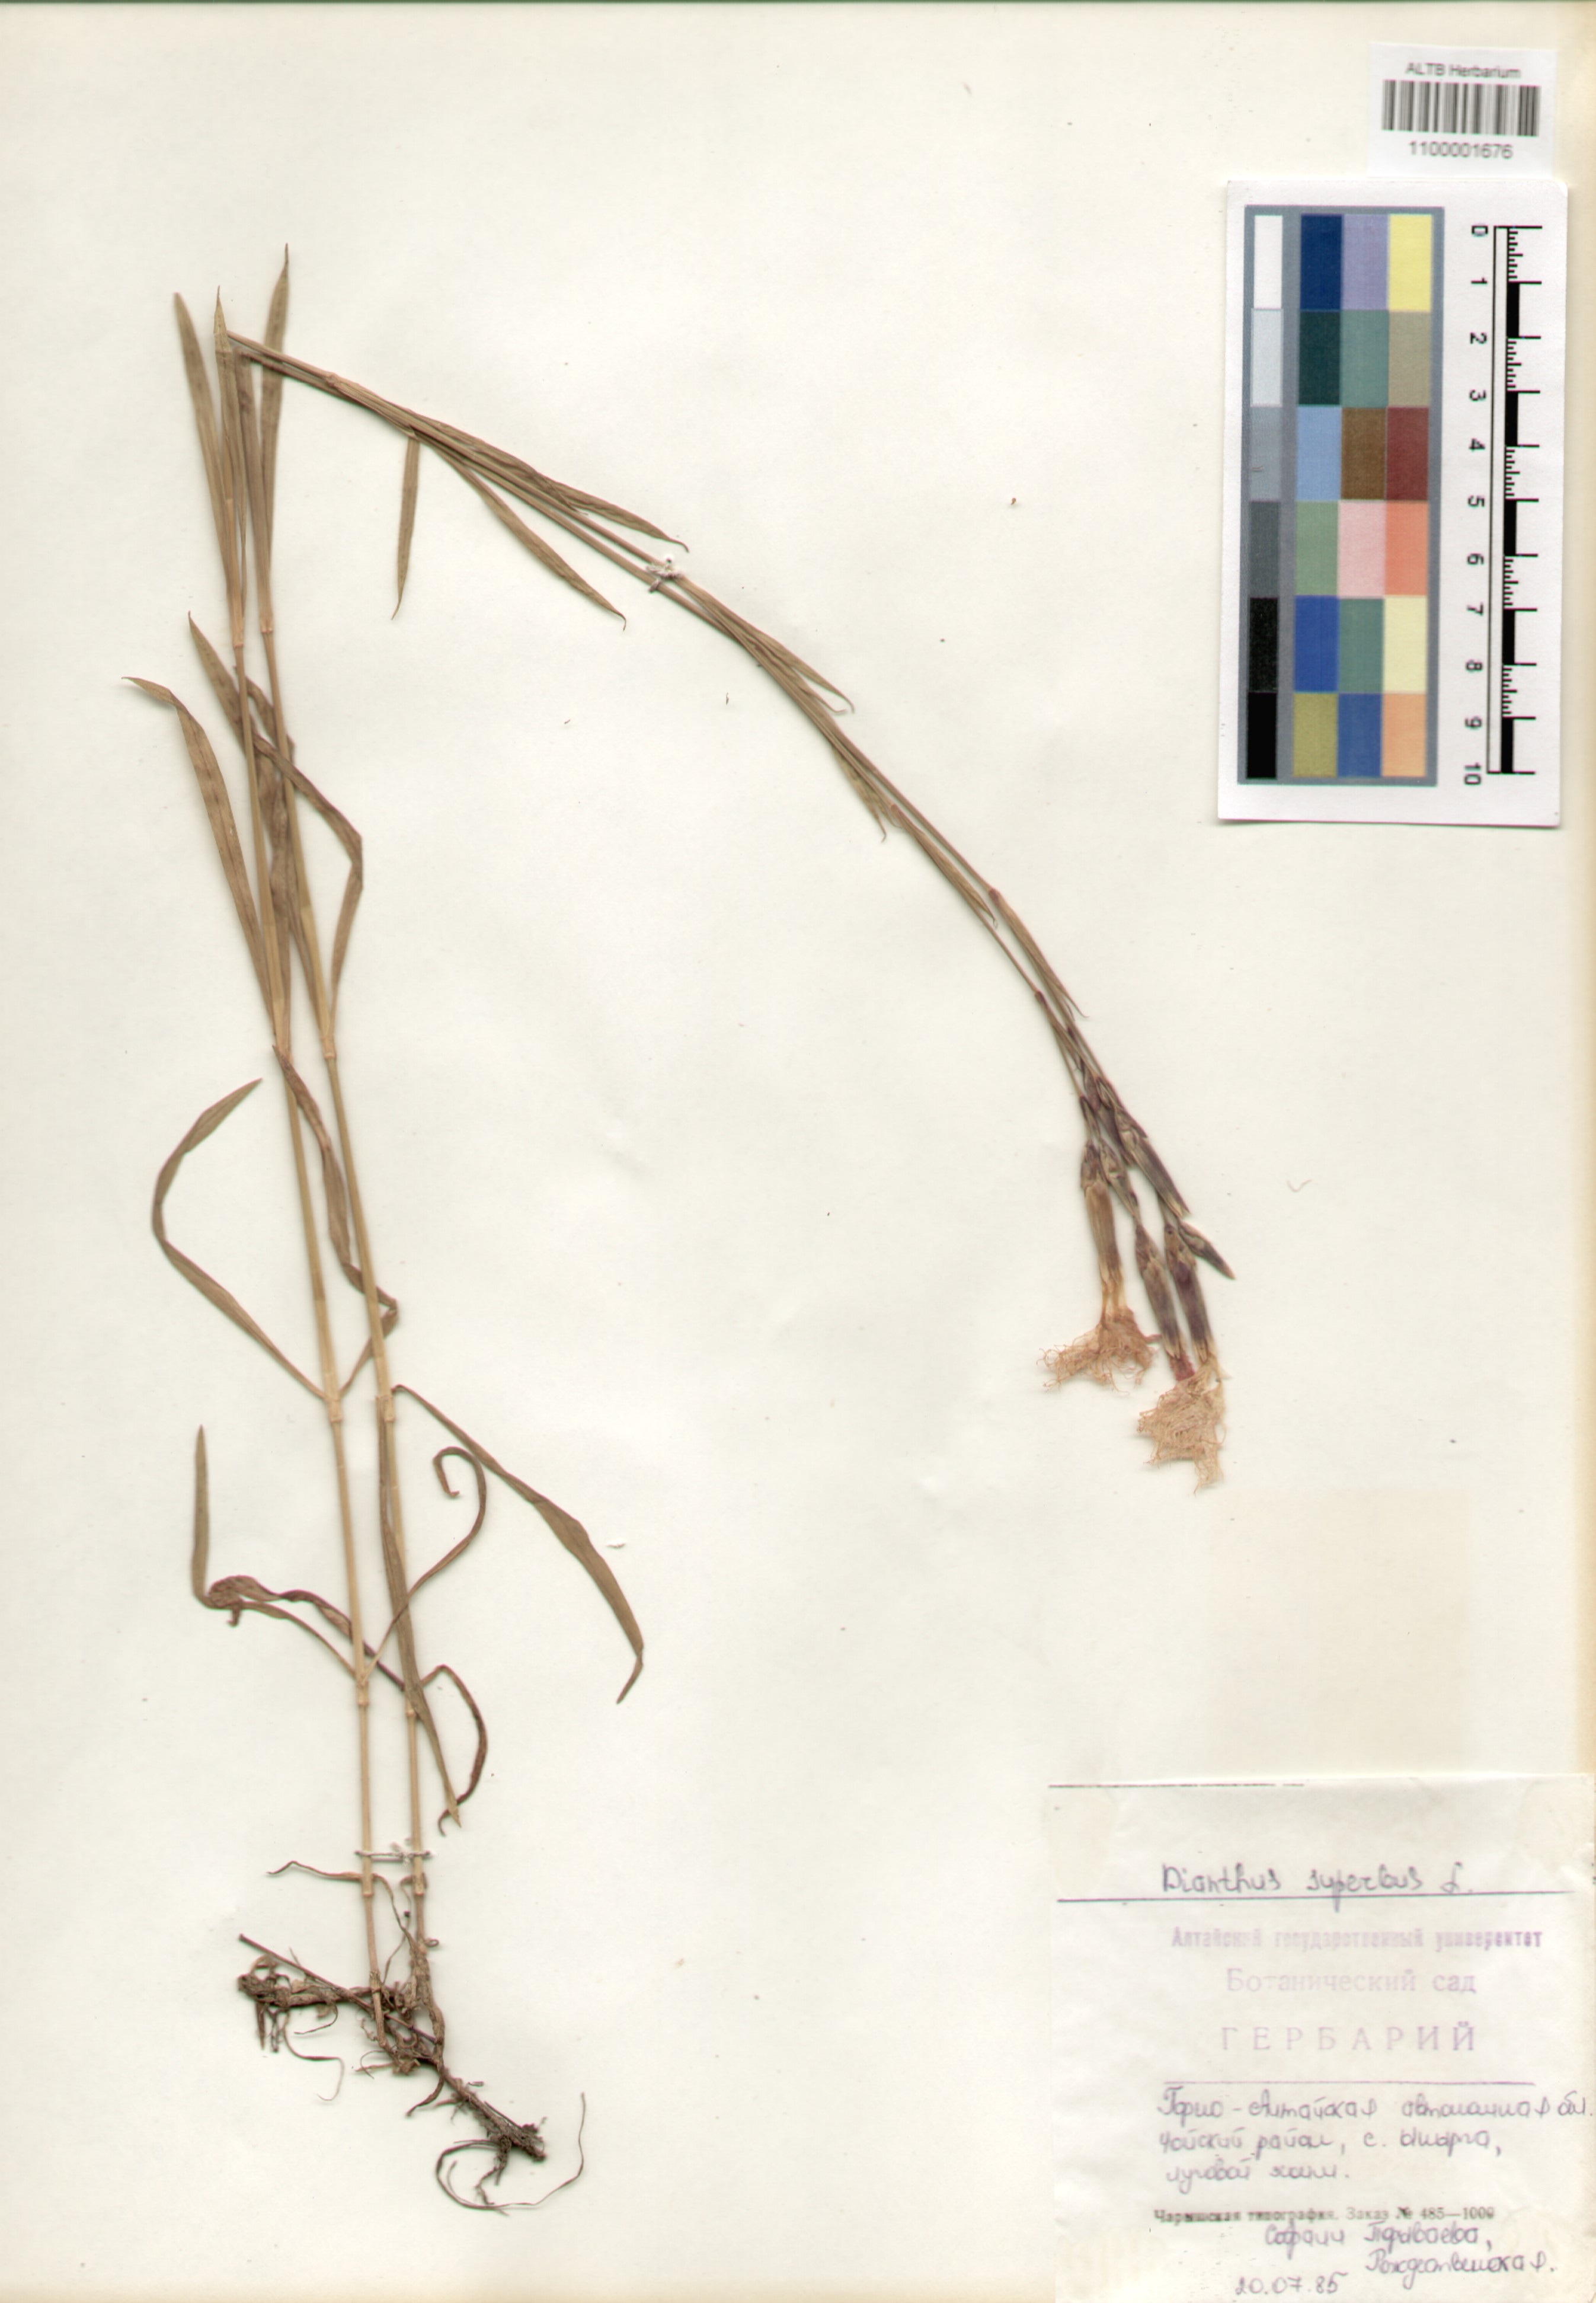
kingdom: Plantae
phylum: Tracheophyta
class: Magnoliopsida
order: Caryophyllales
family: Caryophyllaceae
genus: Dianthus
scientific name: Dianthus superbus
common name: Fringed pink
